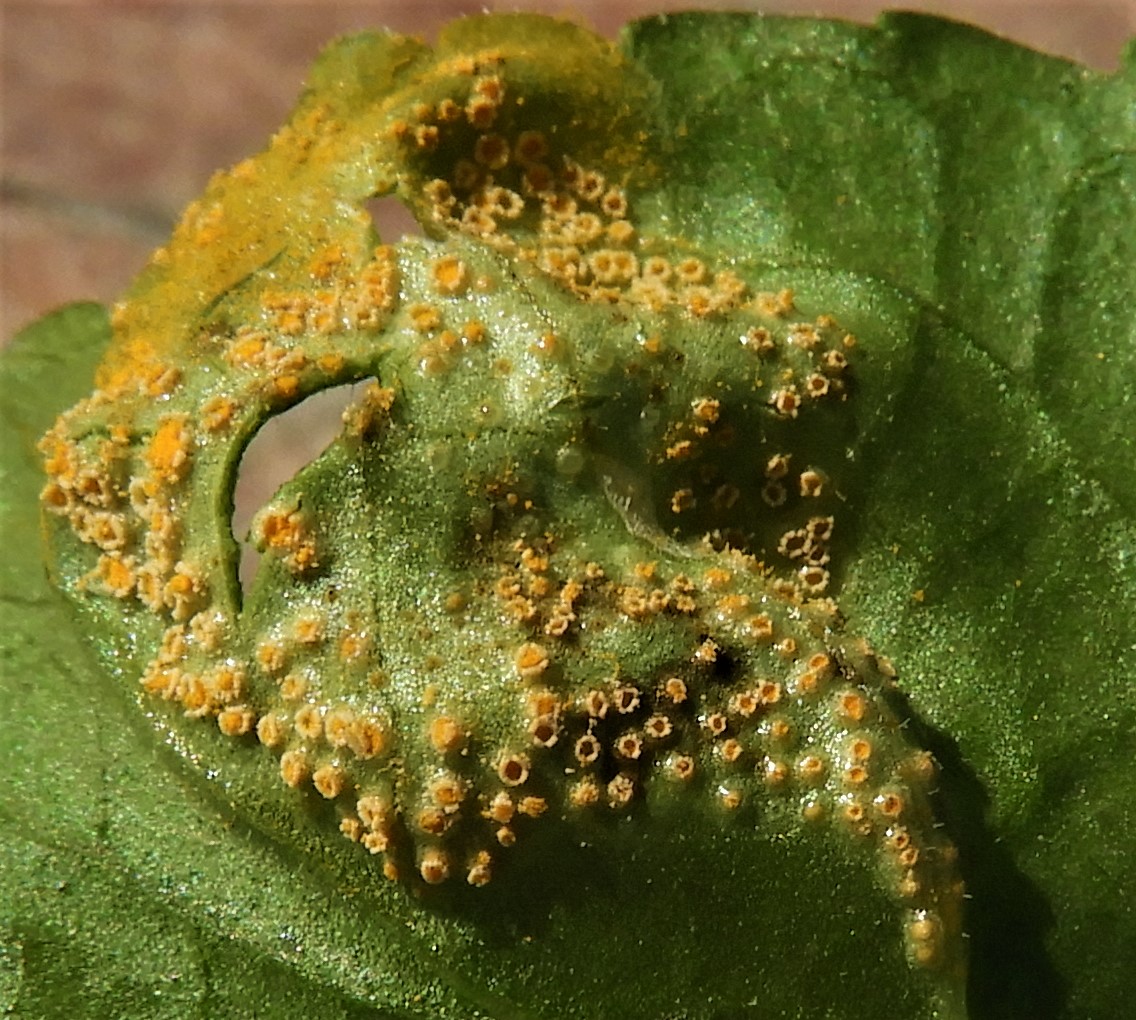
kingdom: Fungi
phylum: Basidiomycota
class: Pucciniomycetes
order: Pucciniales
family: Pucciniaceae
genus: Puccinia
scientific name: Puccinia violae
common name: viol-tvecellerust
